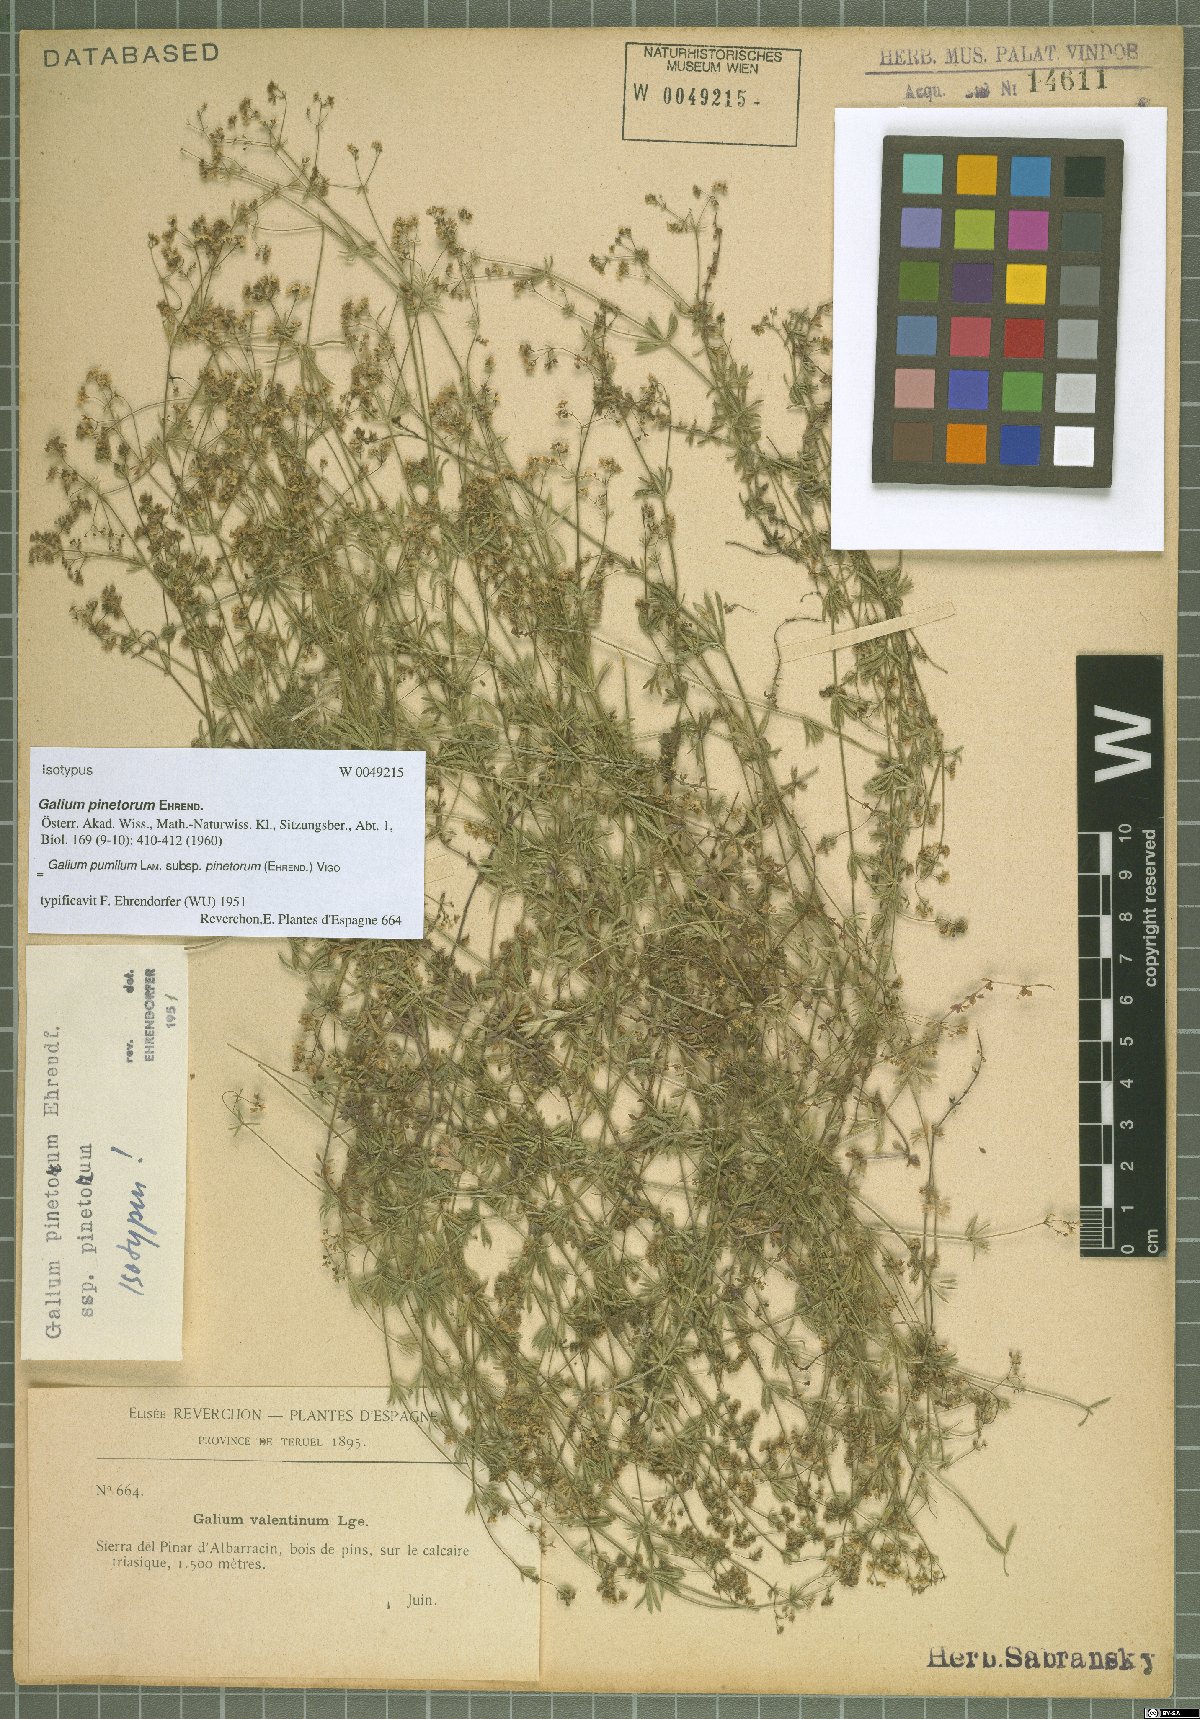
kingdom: Plantae
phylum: Tracheophyta
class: Magnoliopsida
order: Gentianales
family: Rubiaceae
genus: Galium
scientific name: Galium estebanii
